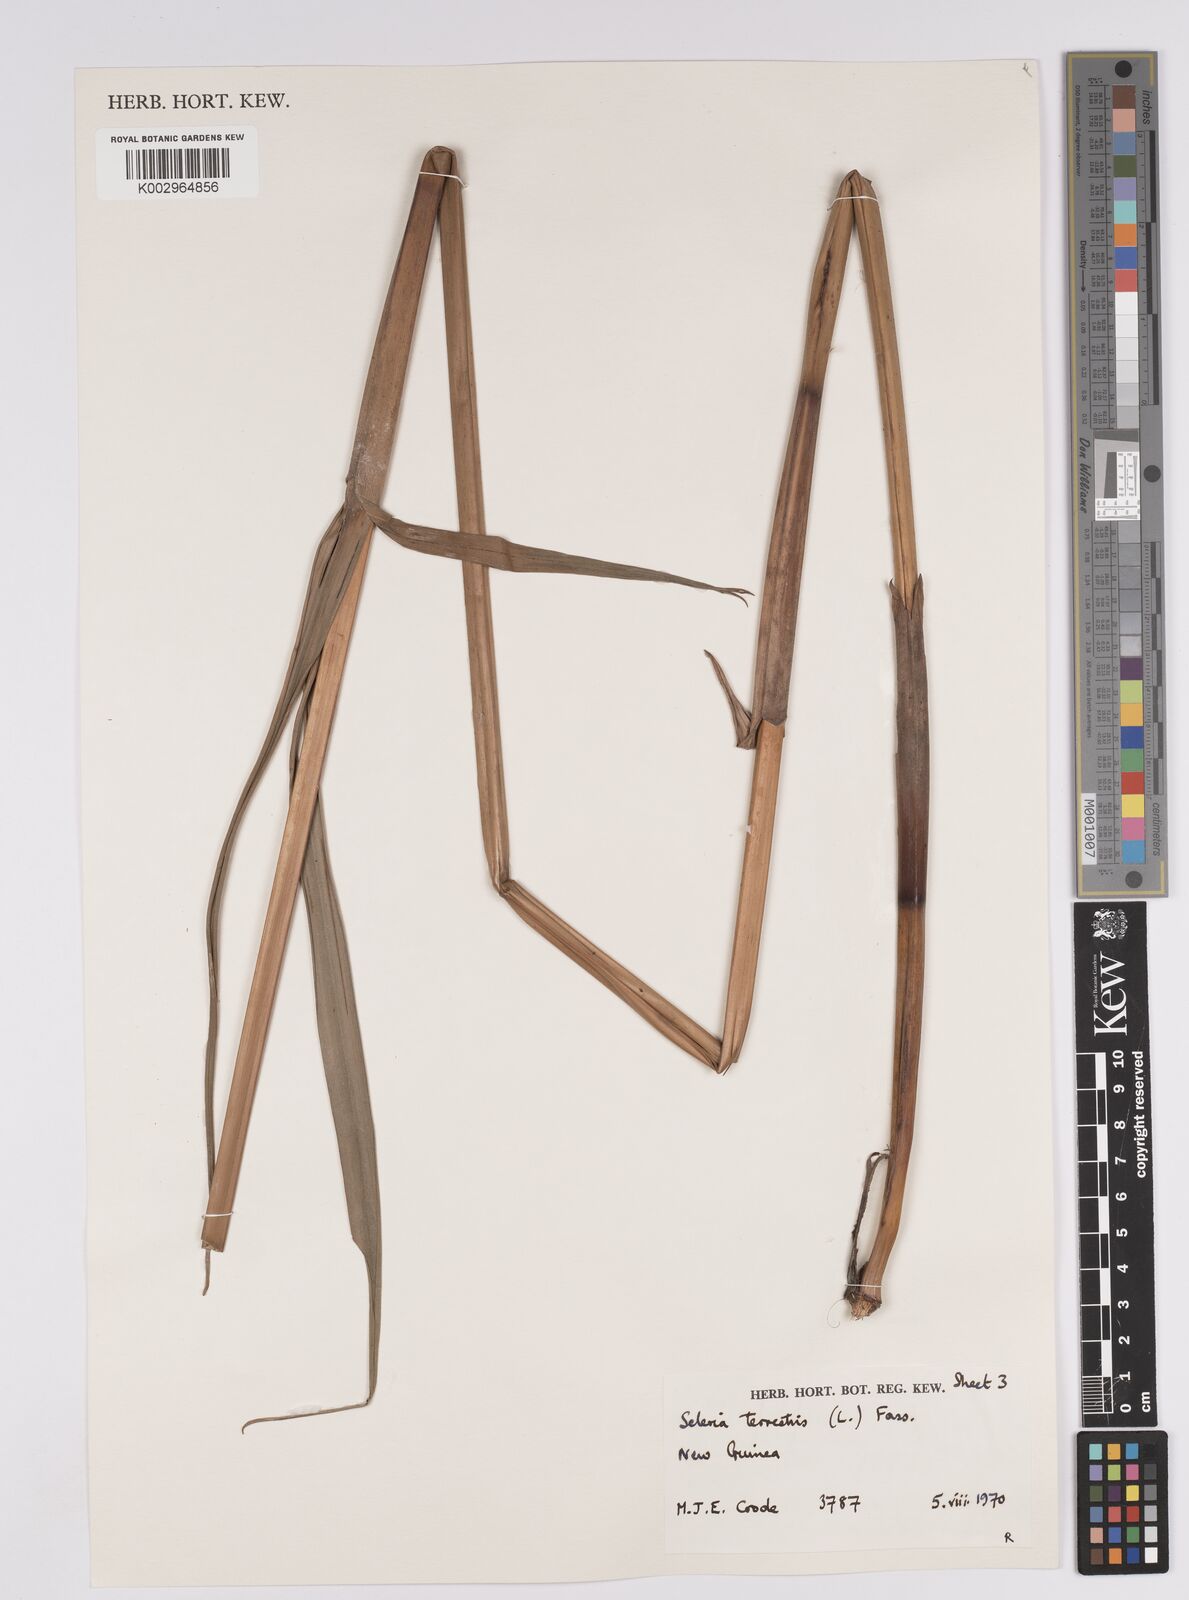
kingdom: Plantae
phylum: Tracheophyta
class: Liliopsida
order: Poales
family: Cyperaceae
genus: Scleria
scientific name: Scleria terrestris
